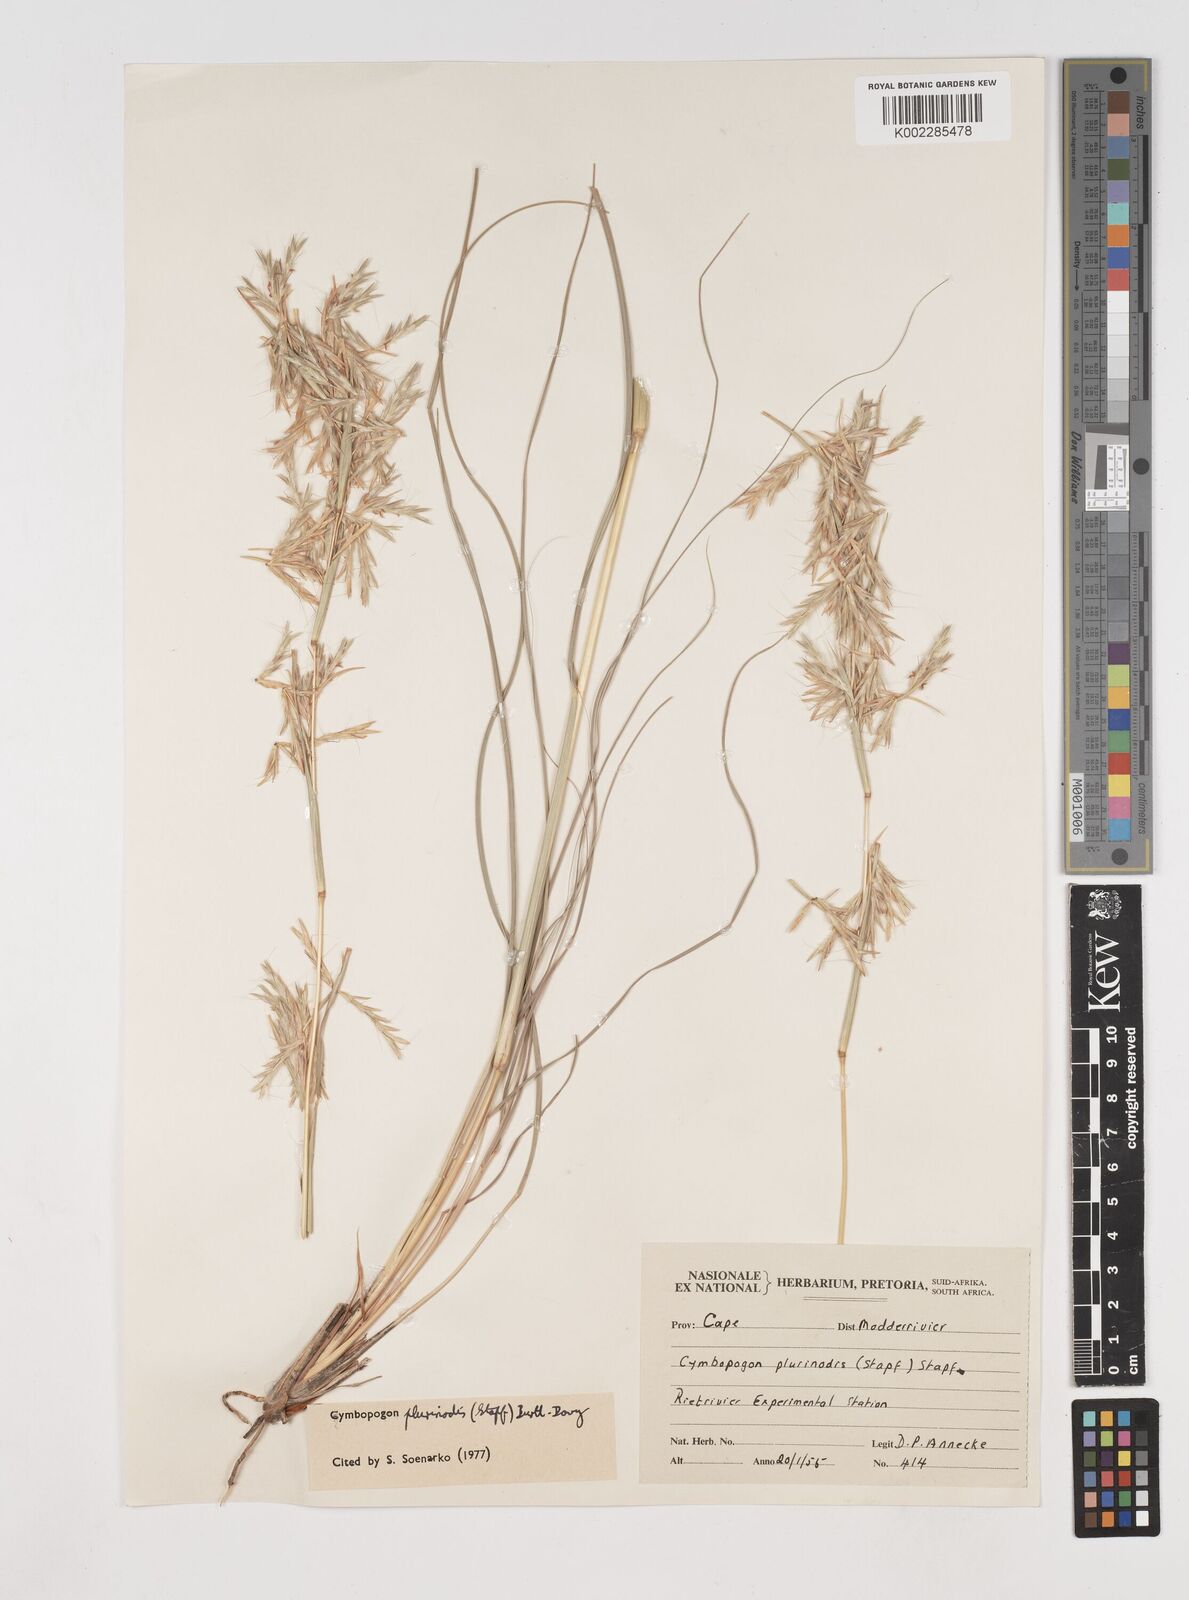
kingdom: Plantae
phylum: Tracheophyta
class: Liliopsida
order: Poales
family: Poaceae
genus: Cymbopogon
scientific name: Cymbopogon pospischilii
